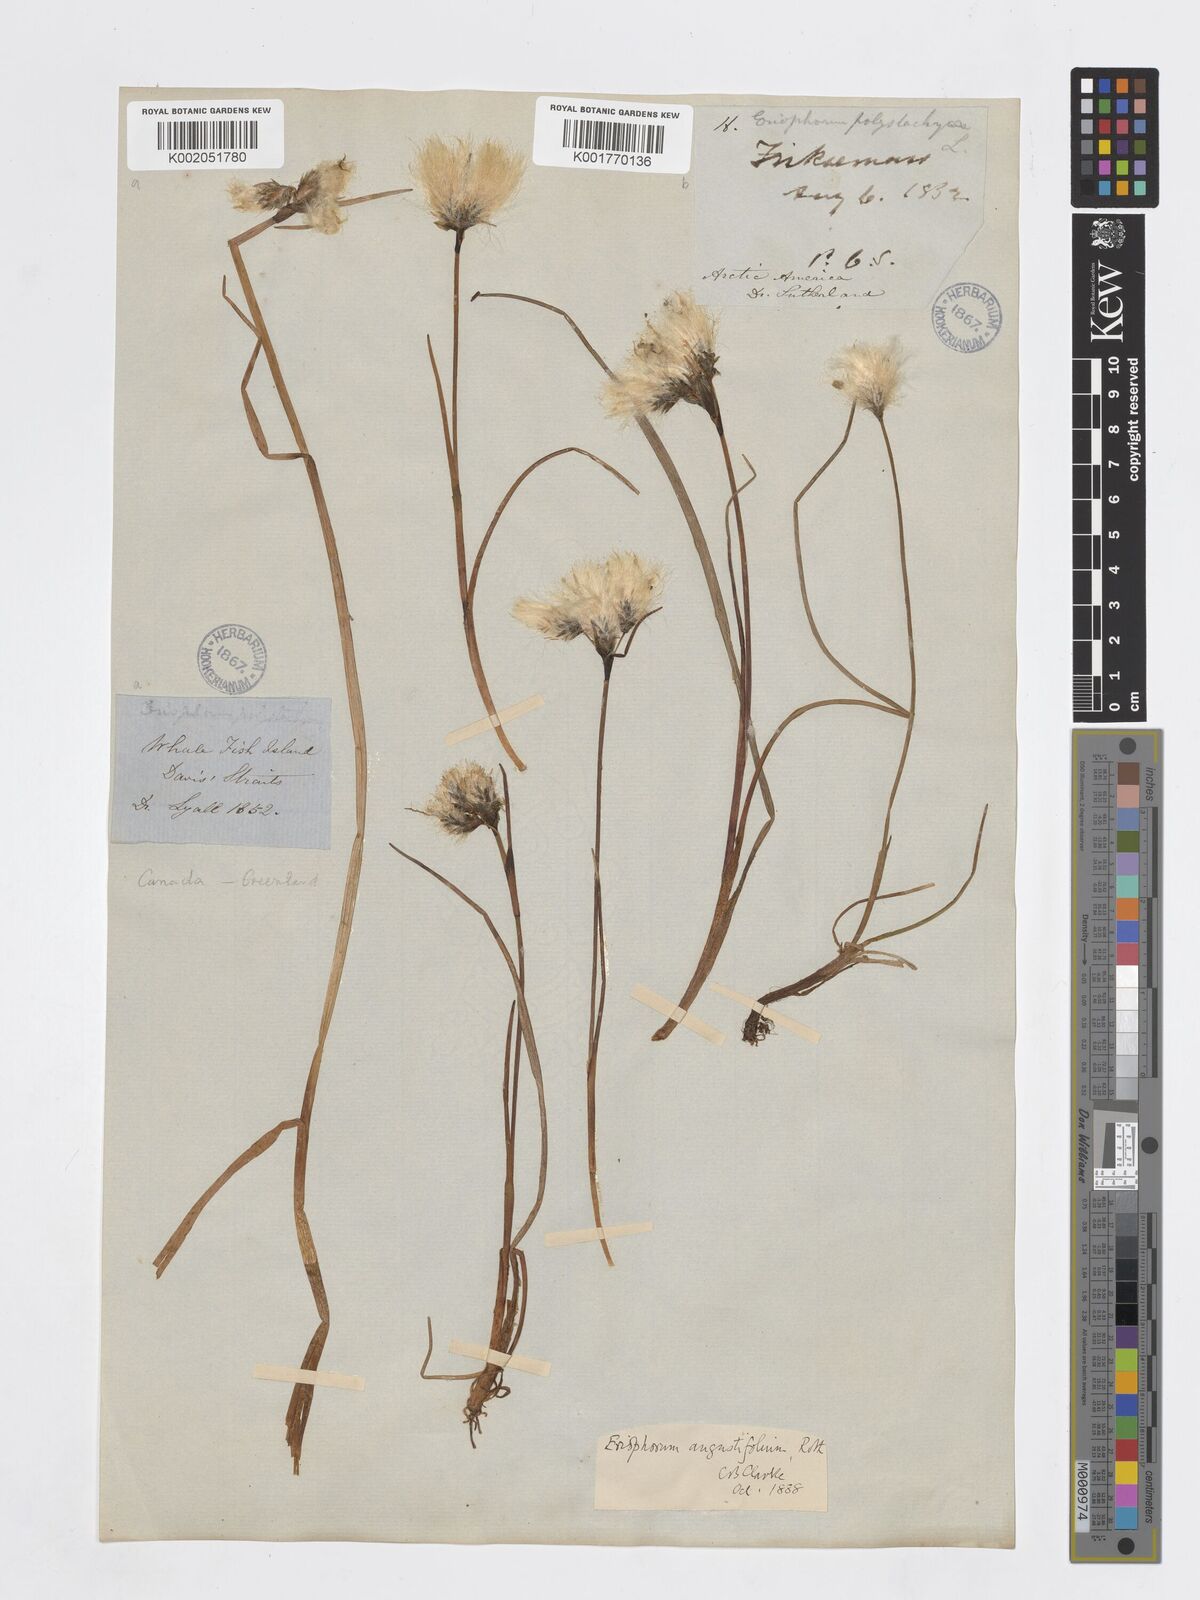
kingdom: Plantae
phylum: Tracheophyta
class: Liliopsida
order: Poales
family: Cyperaceae
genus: Eriophorum
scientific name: Eriophorum angustifolium
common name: Common cottongrass
